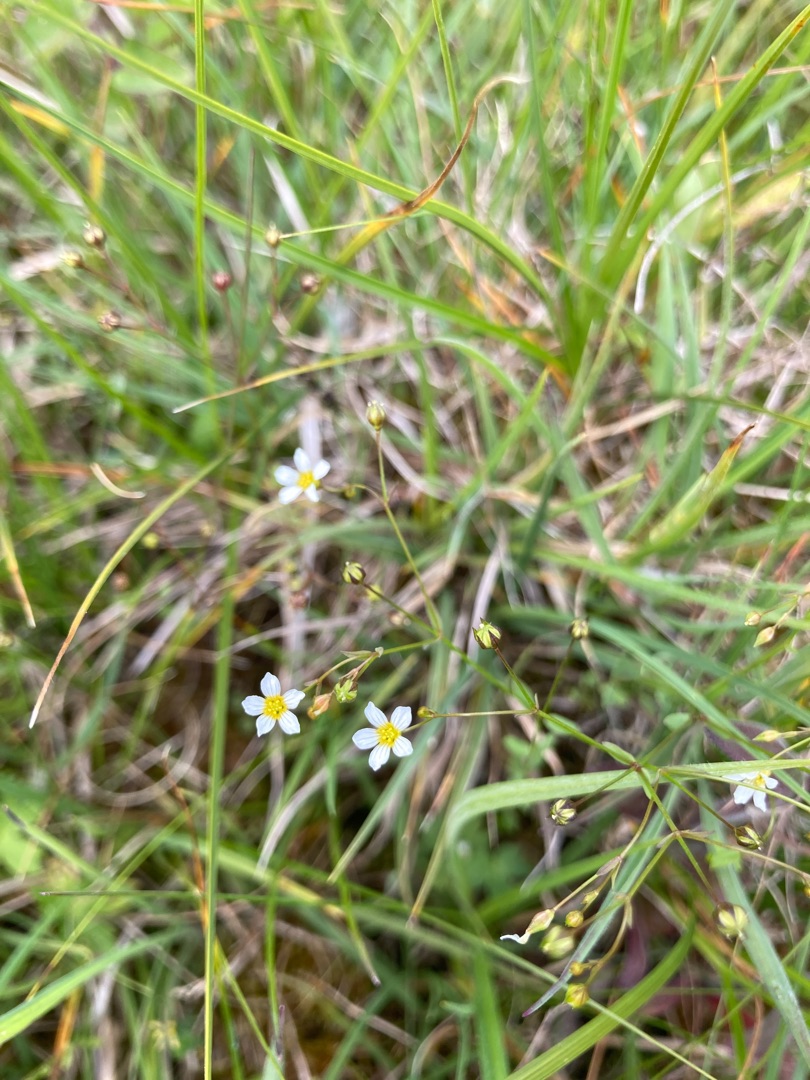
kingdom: Plantae
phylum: Tracheophyta
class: Magnoliopsida
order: Malpighiales
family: Linaceae
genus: Linum
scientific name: Linum catharticum
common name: Vild hør
